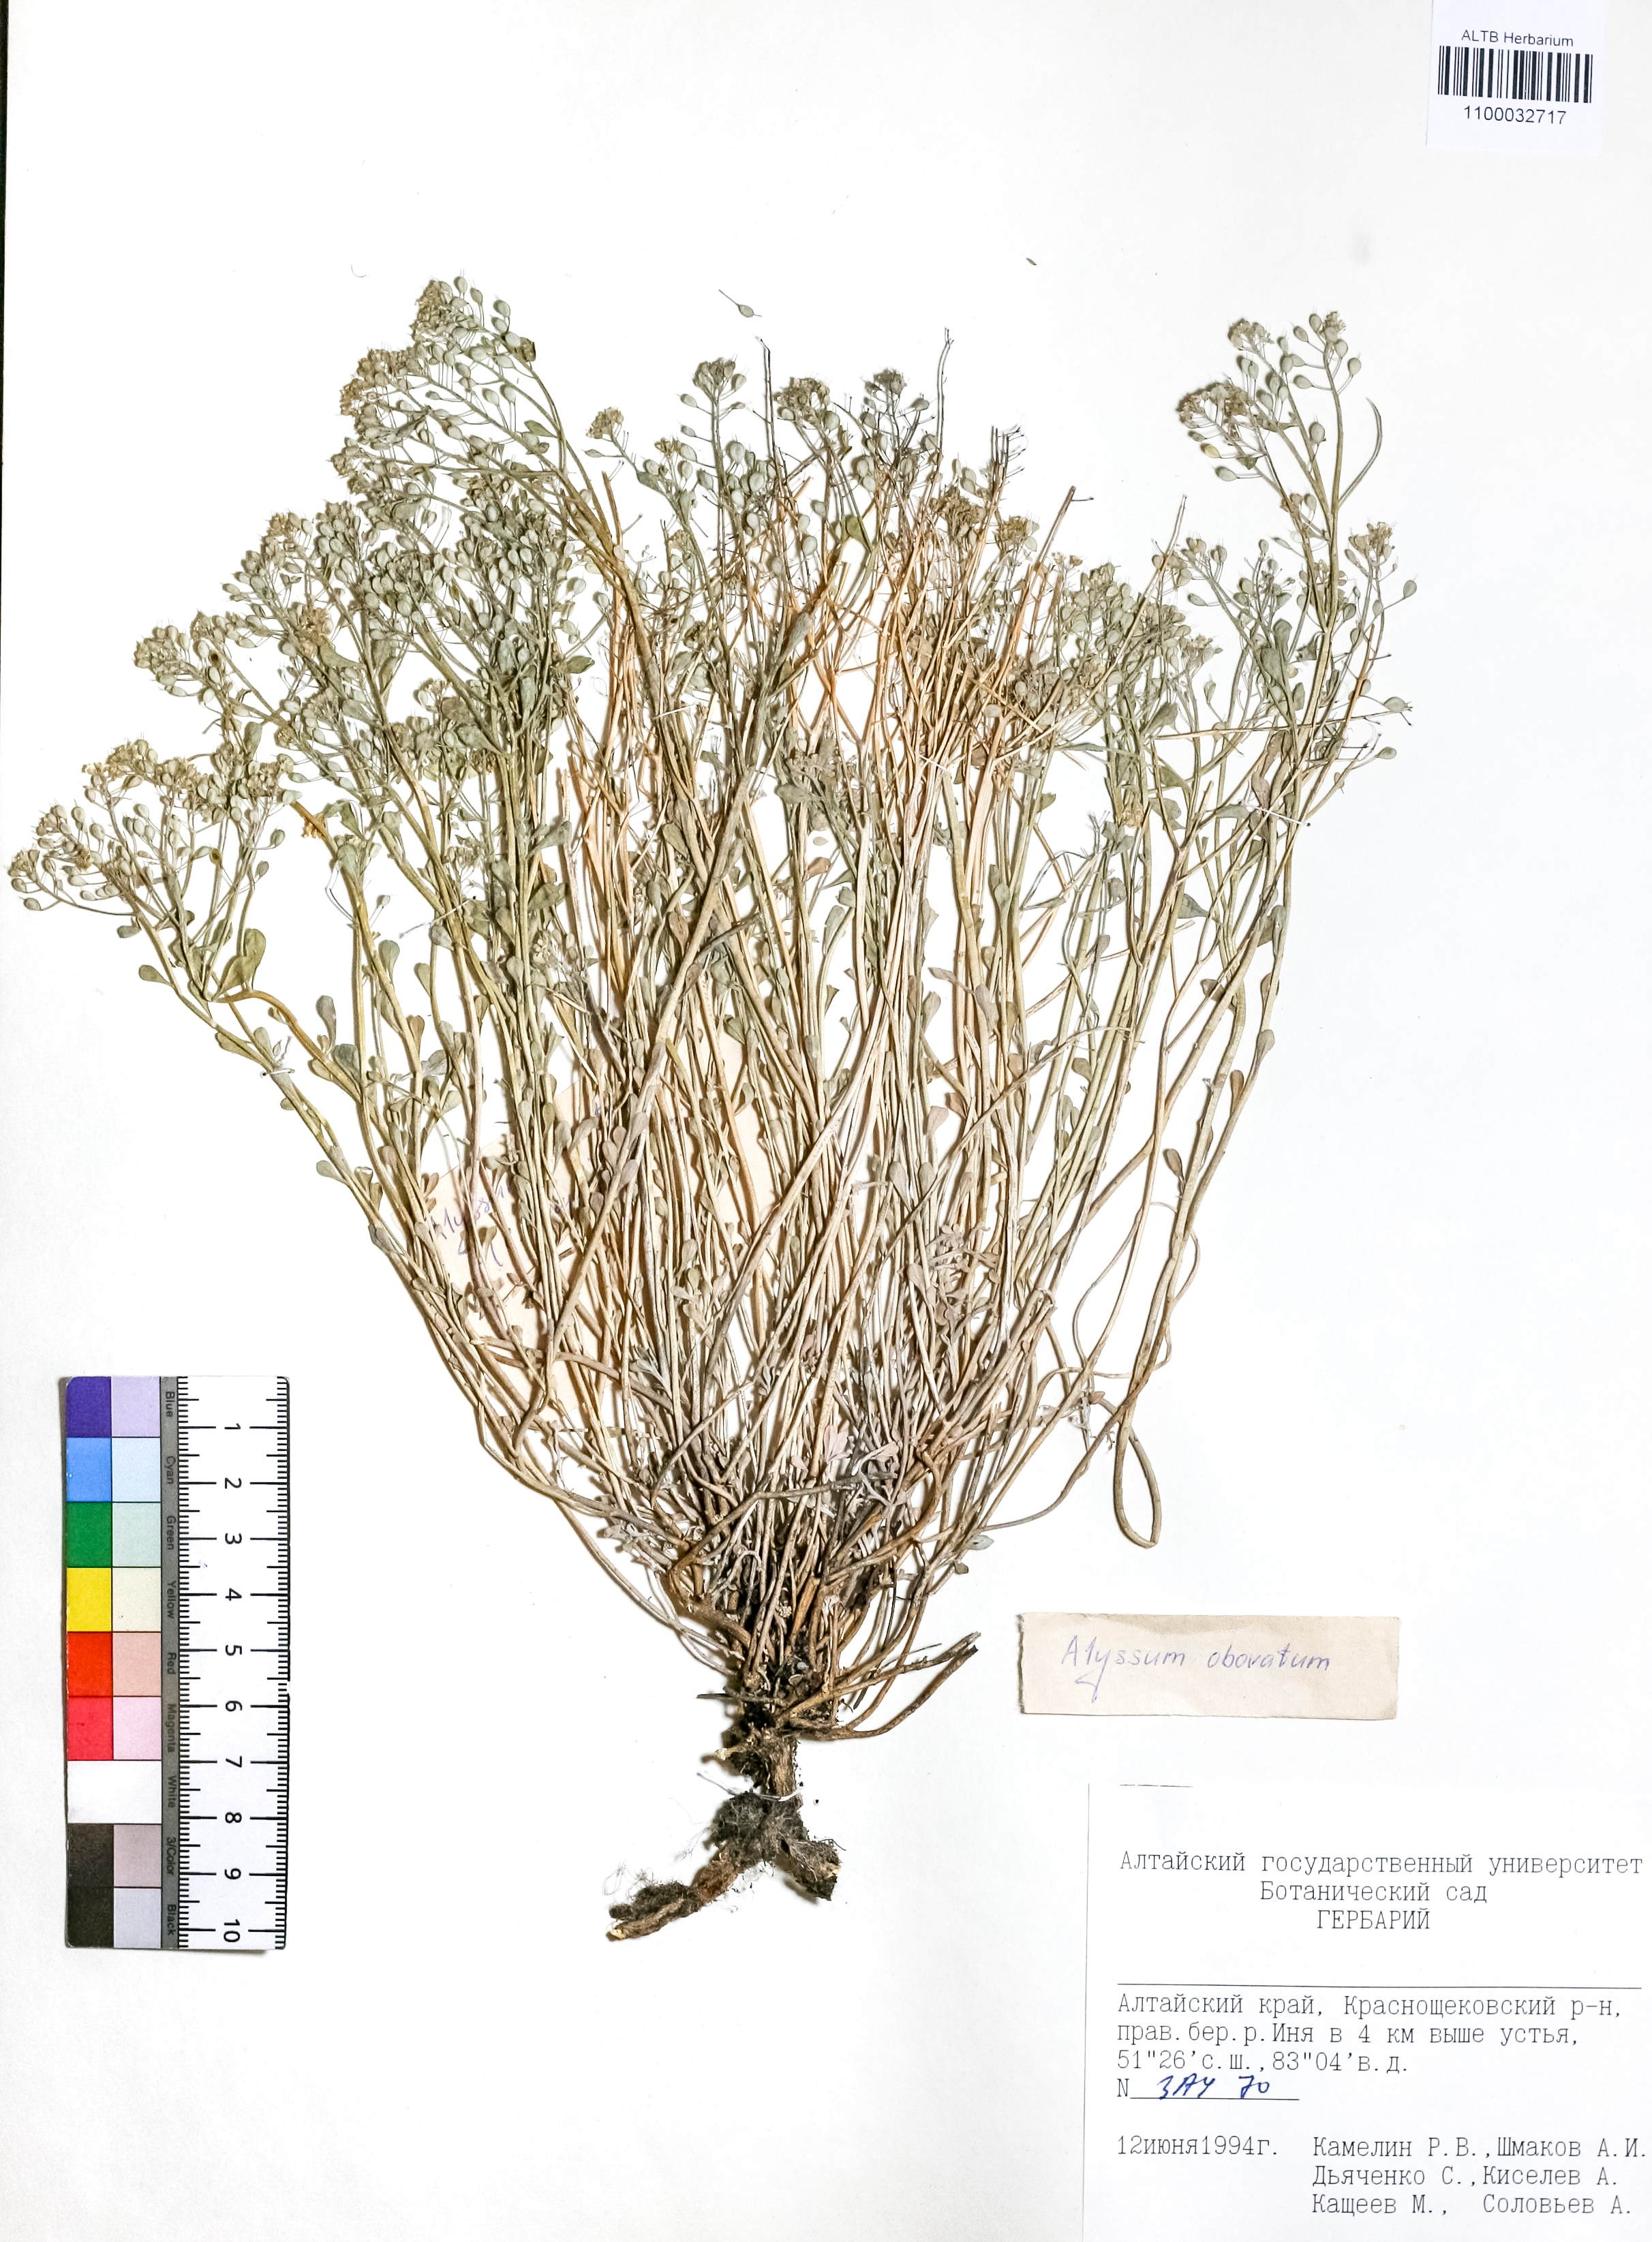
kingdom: Plantae
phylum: Tracheophyta
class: Magnoliopsida
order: Brassicales
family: Brassicaceae
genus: Odontarrhena
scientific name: Odontarrhena obovata
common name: American alyssum
